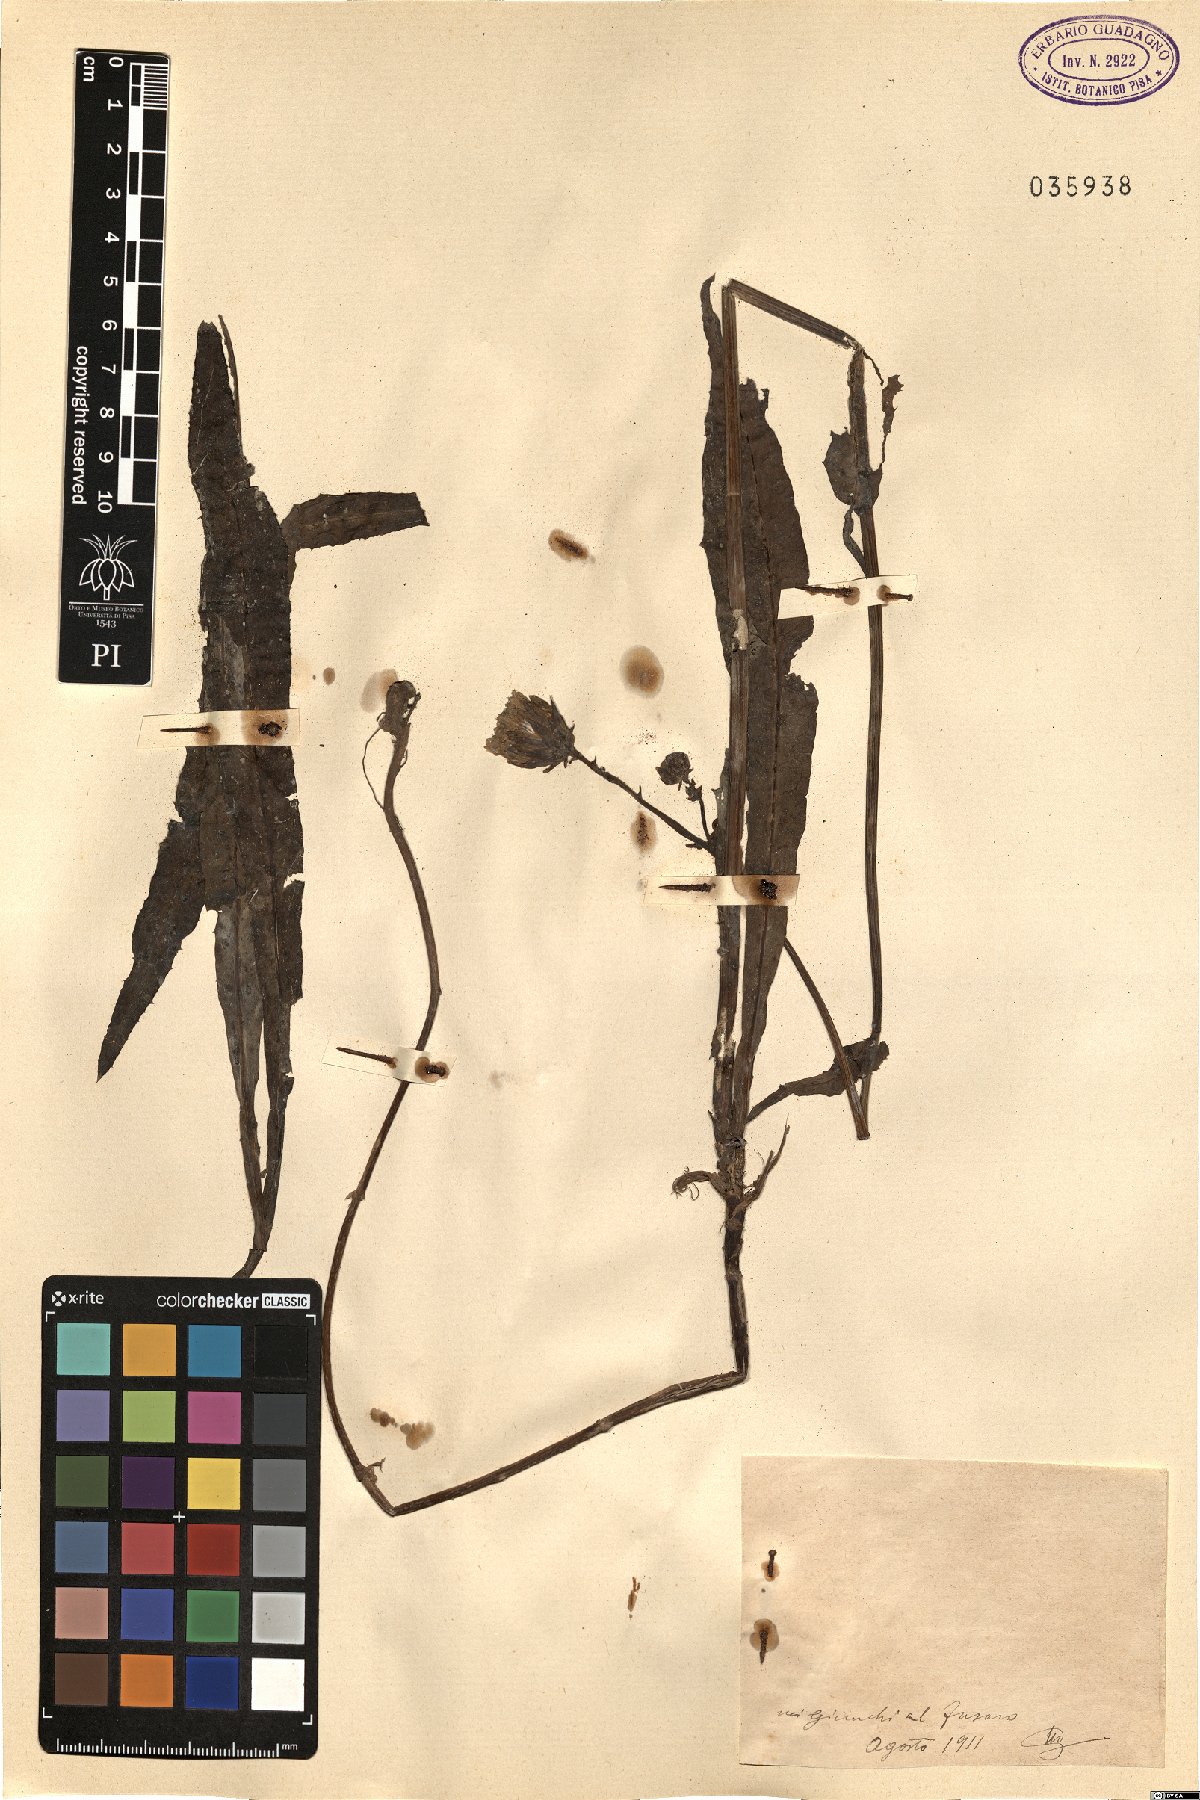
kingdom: Plantae
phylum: Tracheophyta
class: Magnoliopsida
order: Asterales
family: Asteraceae
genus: Sonchus
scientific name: Sonchus
